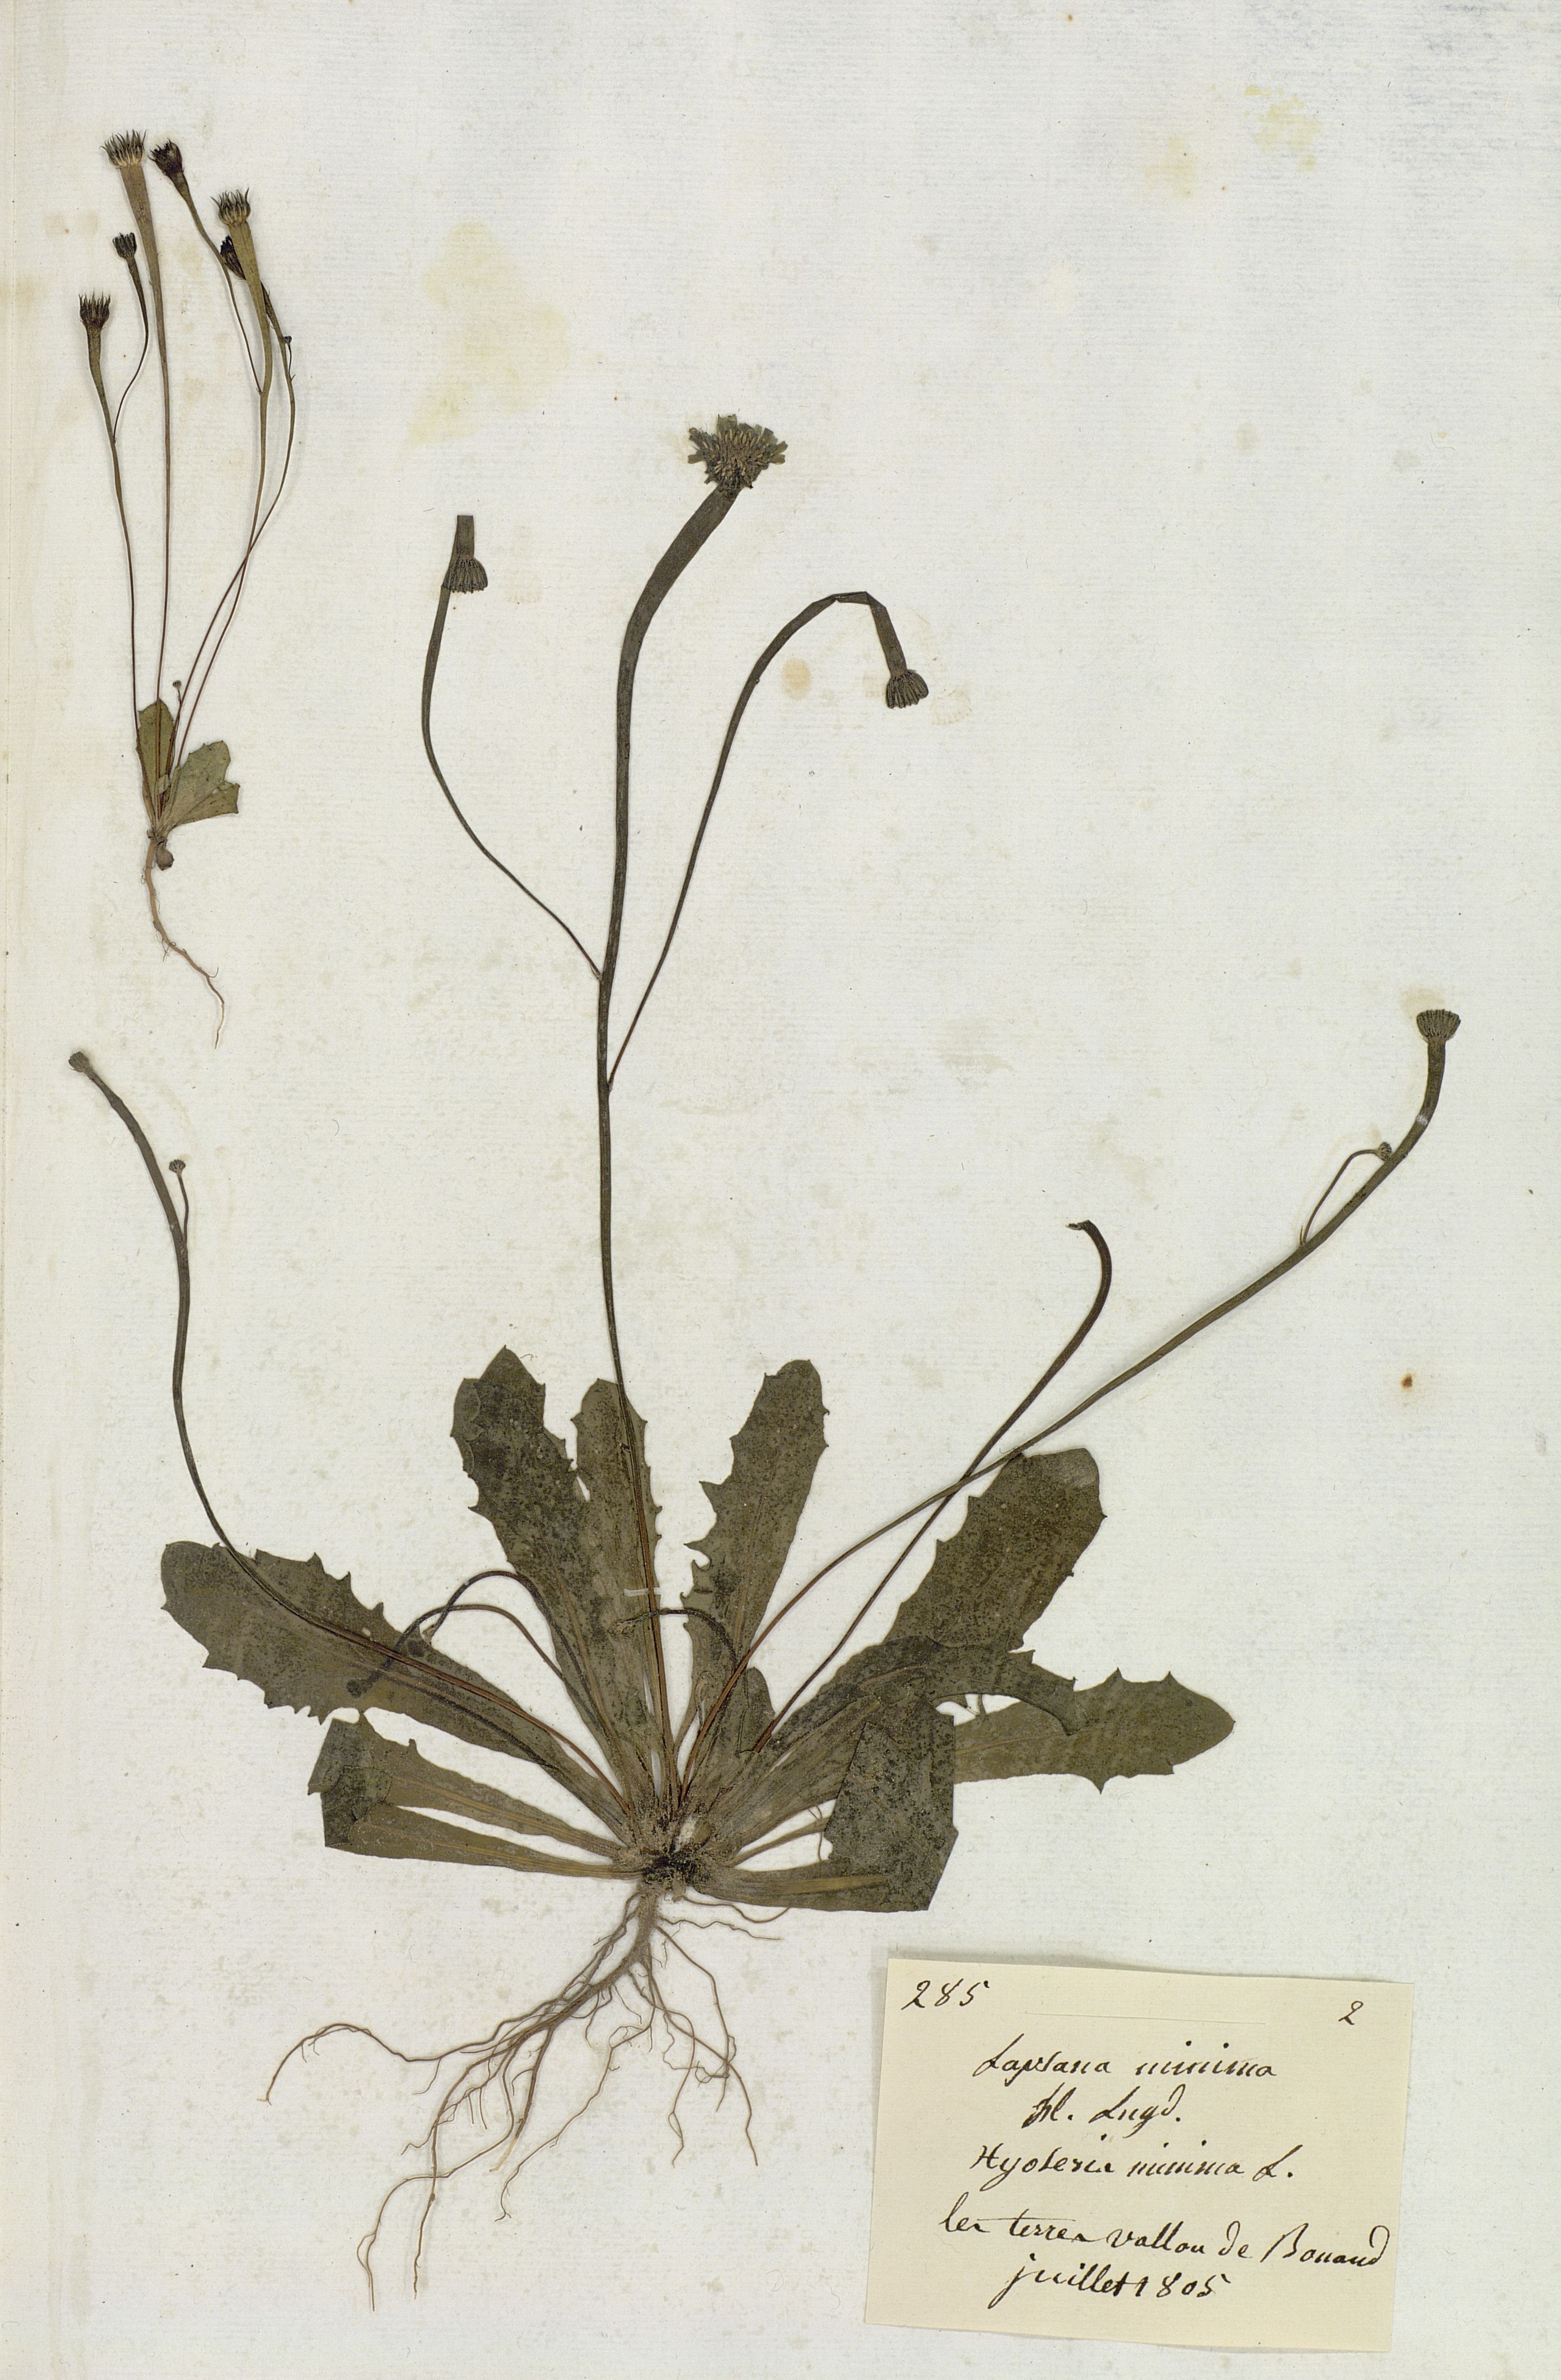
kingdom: Plantae
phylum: Tracheophyta
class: Magnoliopsida
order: Asterales
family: Asteraceae
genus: Arnoseris
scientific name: Arnoseris minima
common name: Lamb's succory
